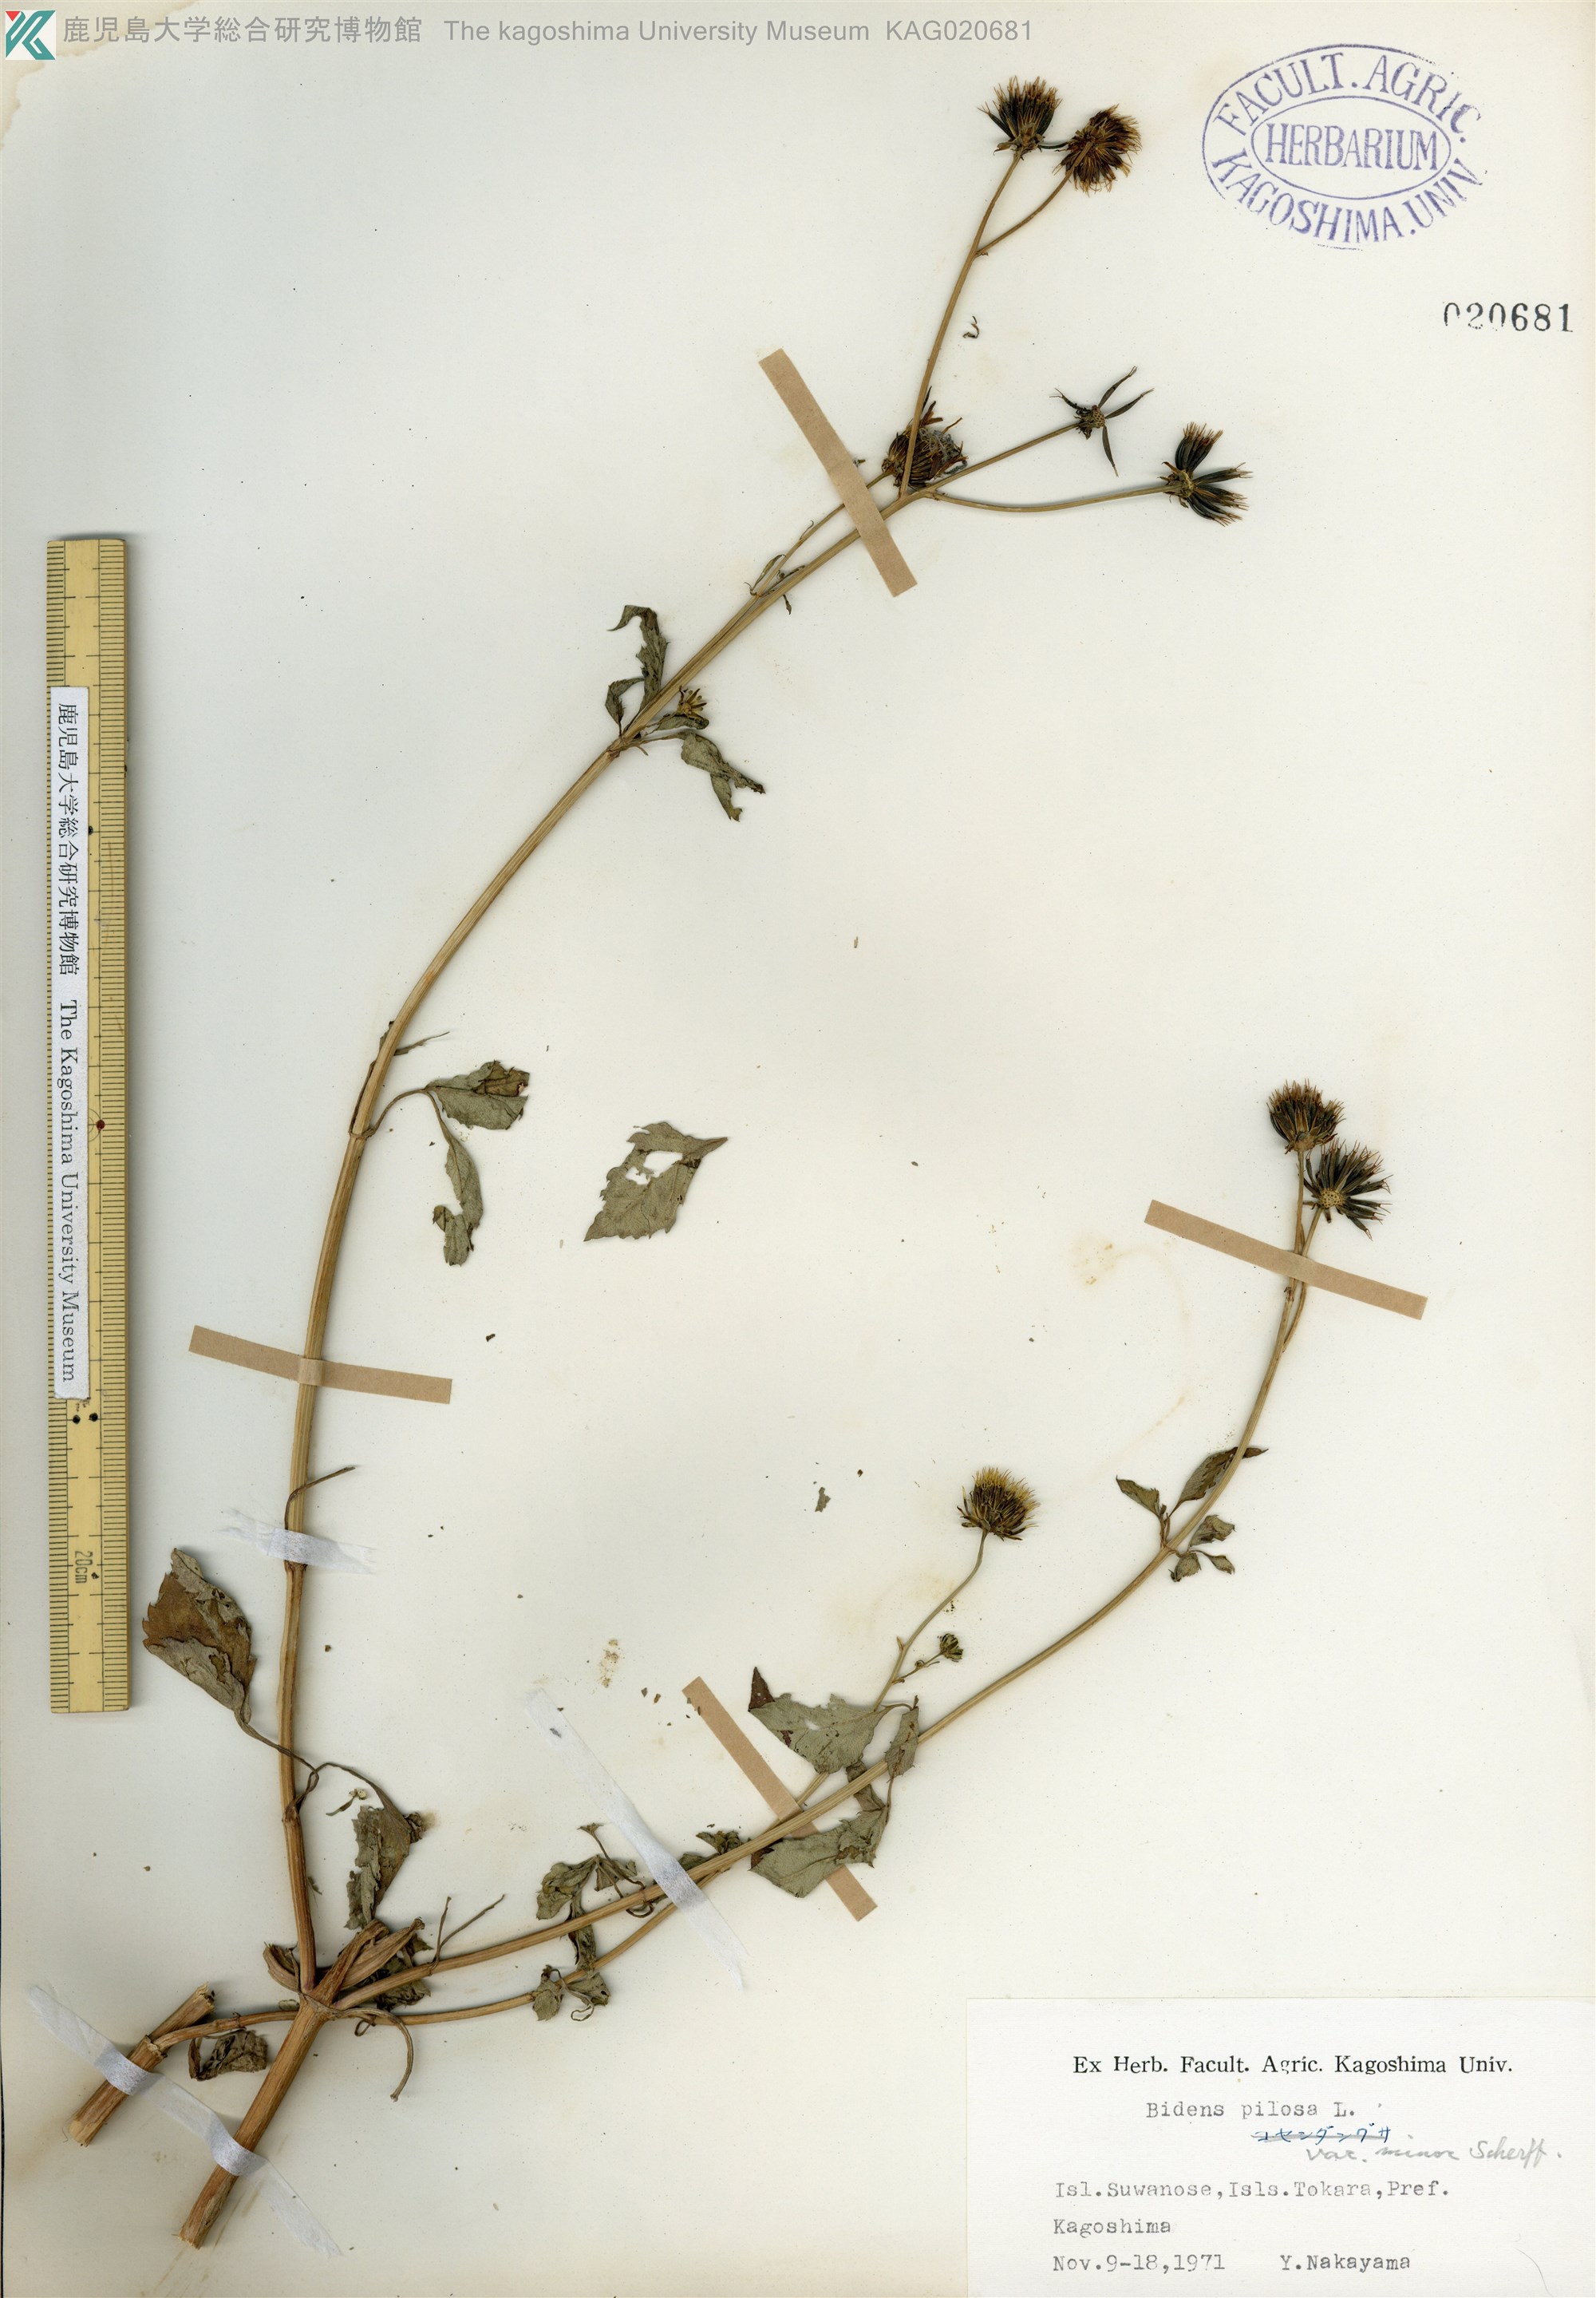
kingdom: Plantae
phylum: Tracheophyta
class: Magnoliopsida
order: Asterales
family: Asteraceae
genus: Bidens
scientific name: Bidens pilosa
